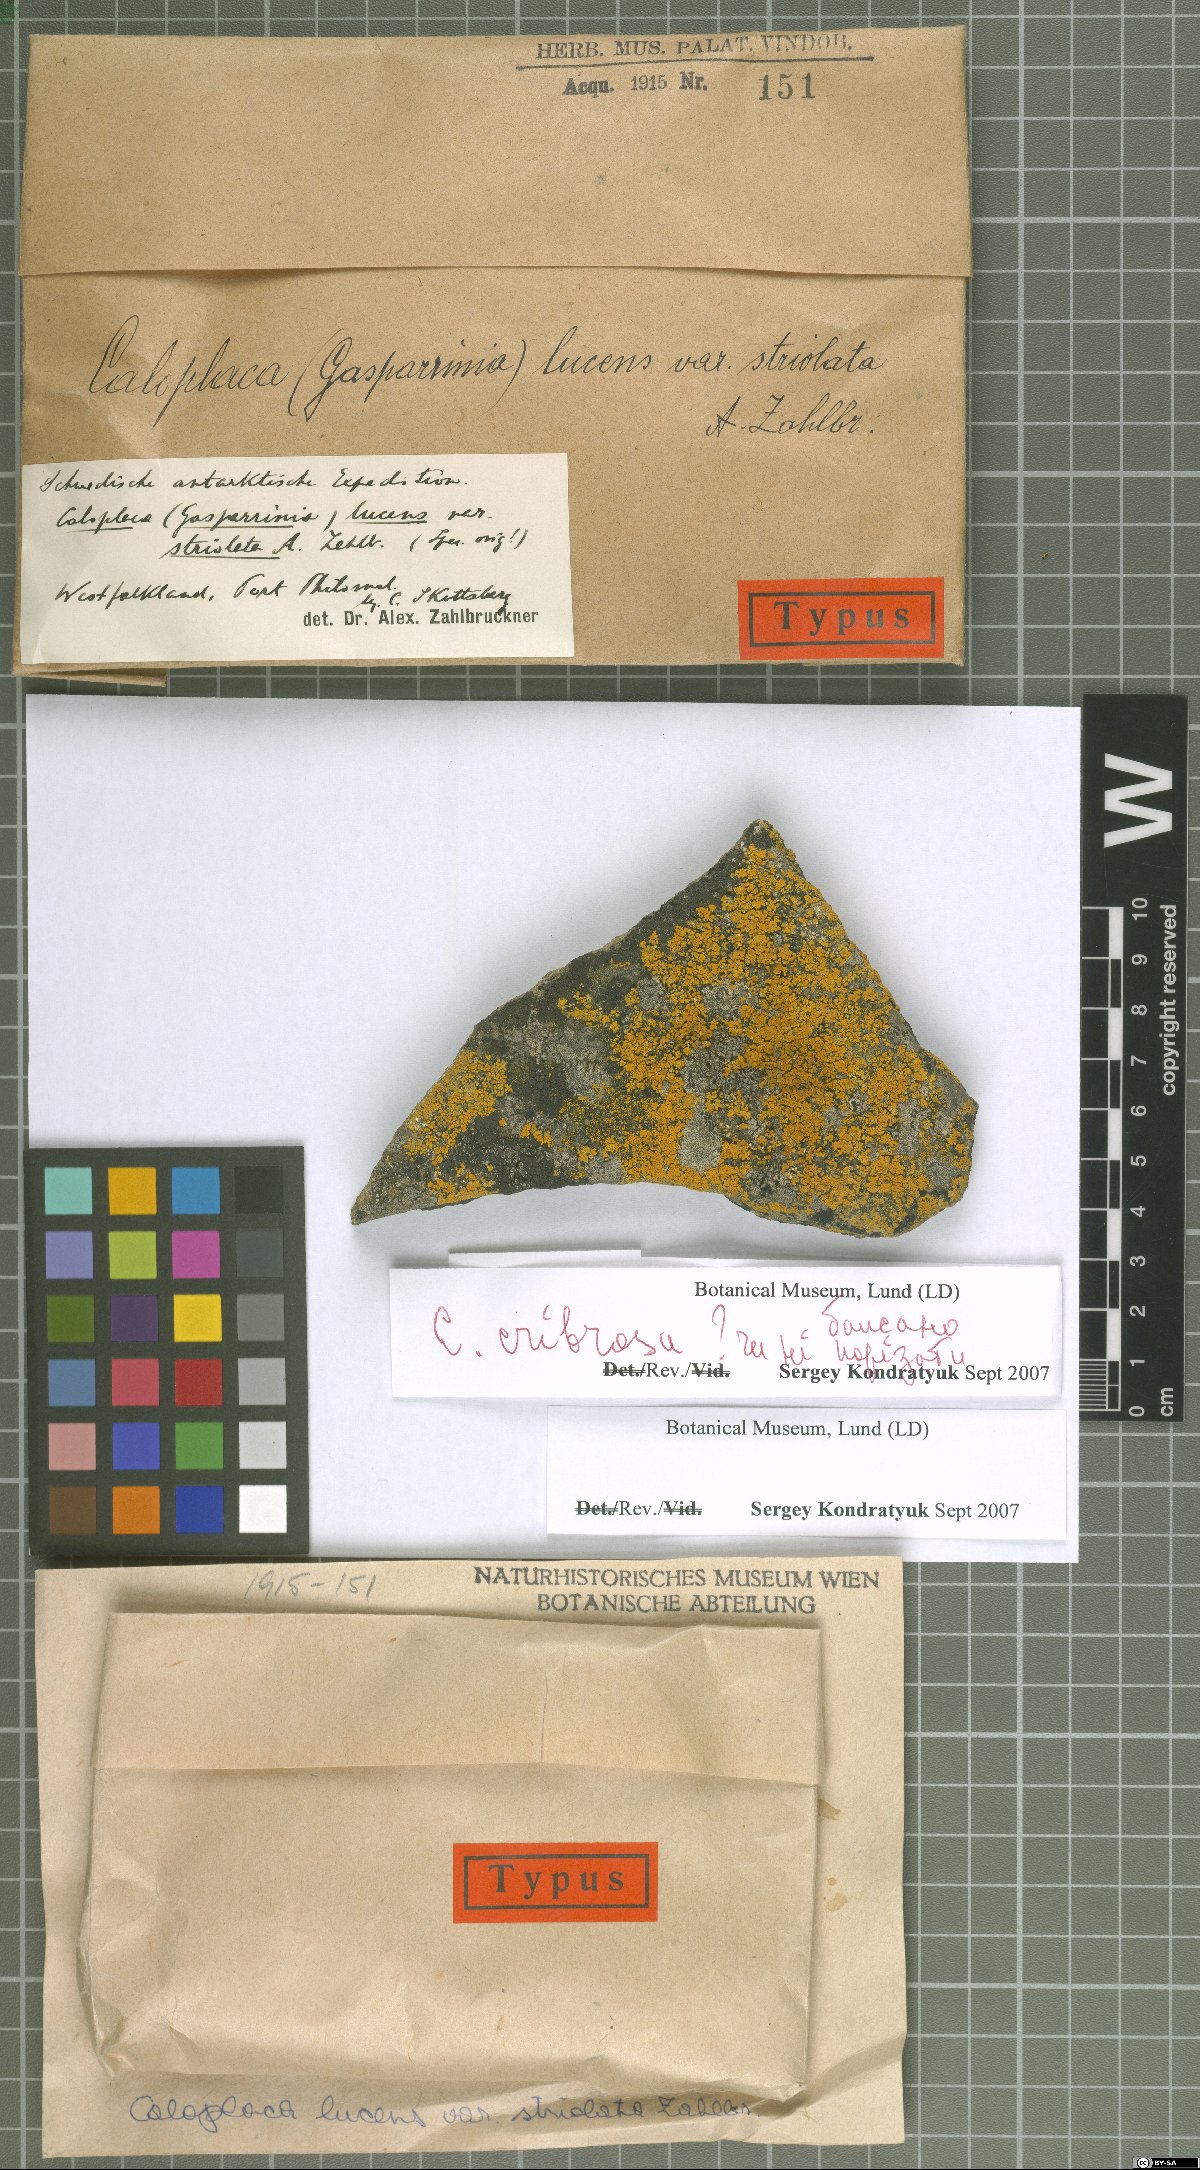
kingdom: Fungi
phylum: Ascomycota
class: Lecanoromycetes
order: Teloschistales
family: Teloschistaceae
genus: Austroplaca
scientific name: Austroplaca lucens
